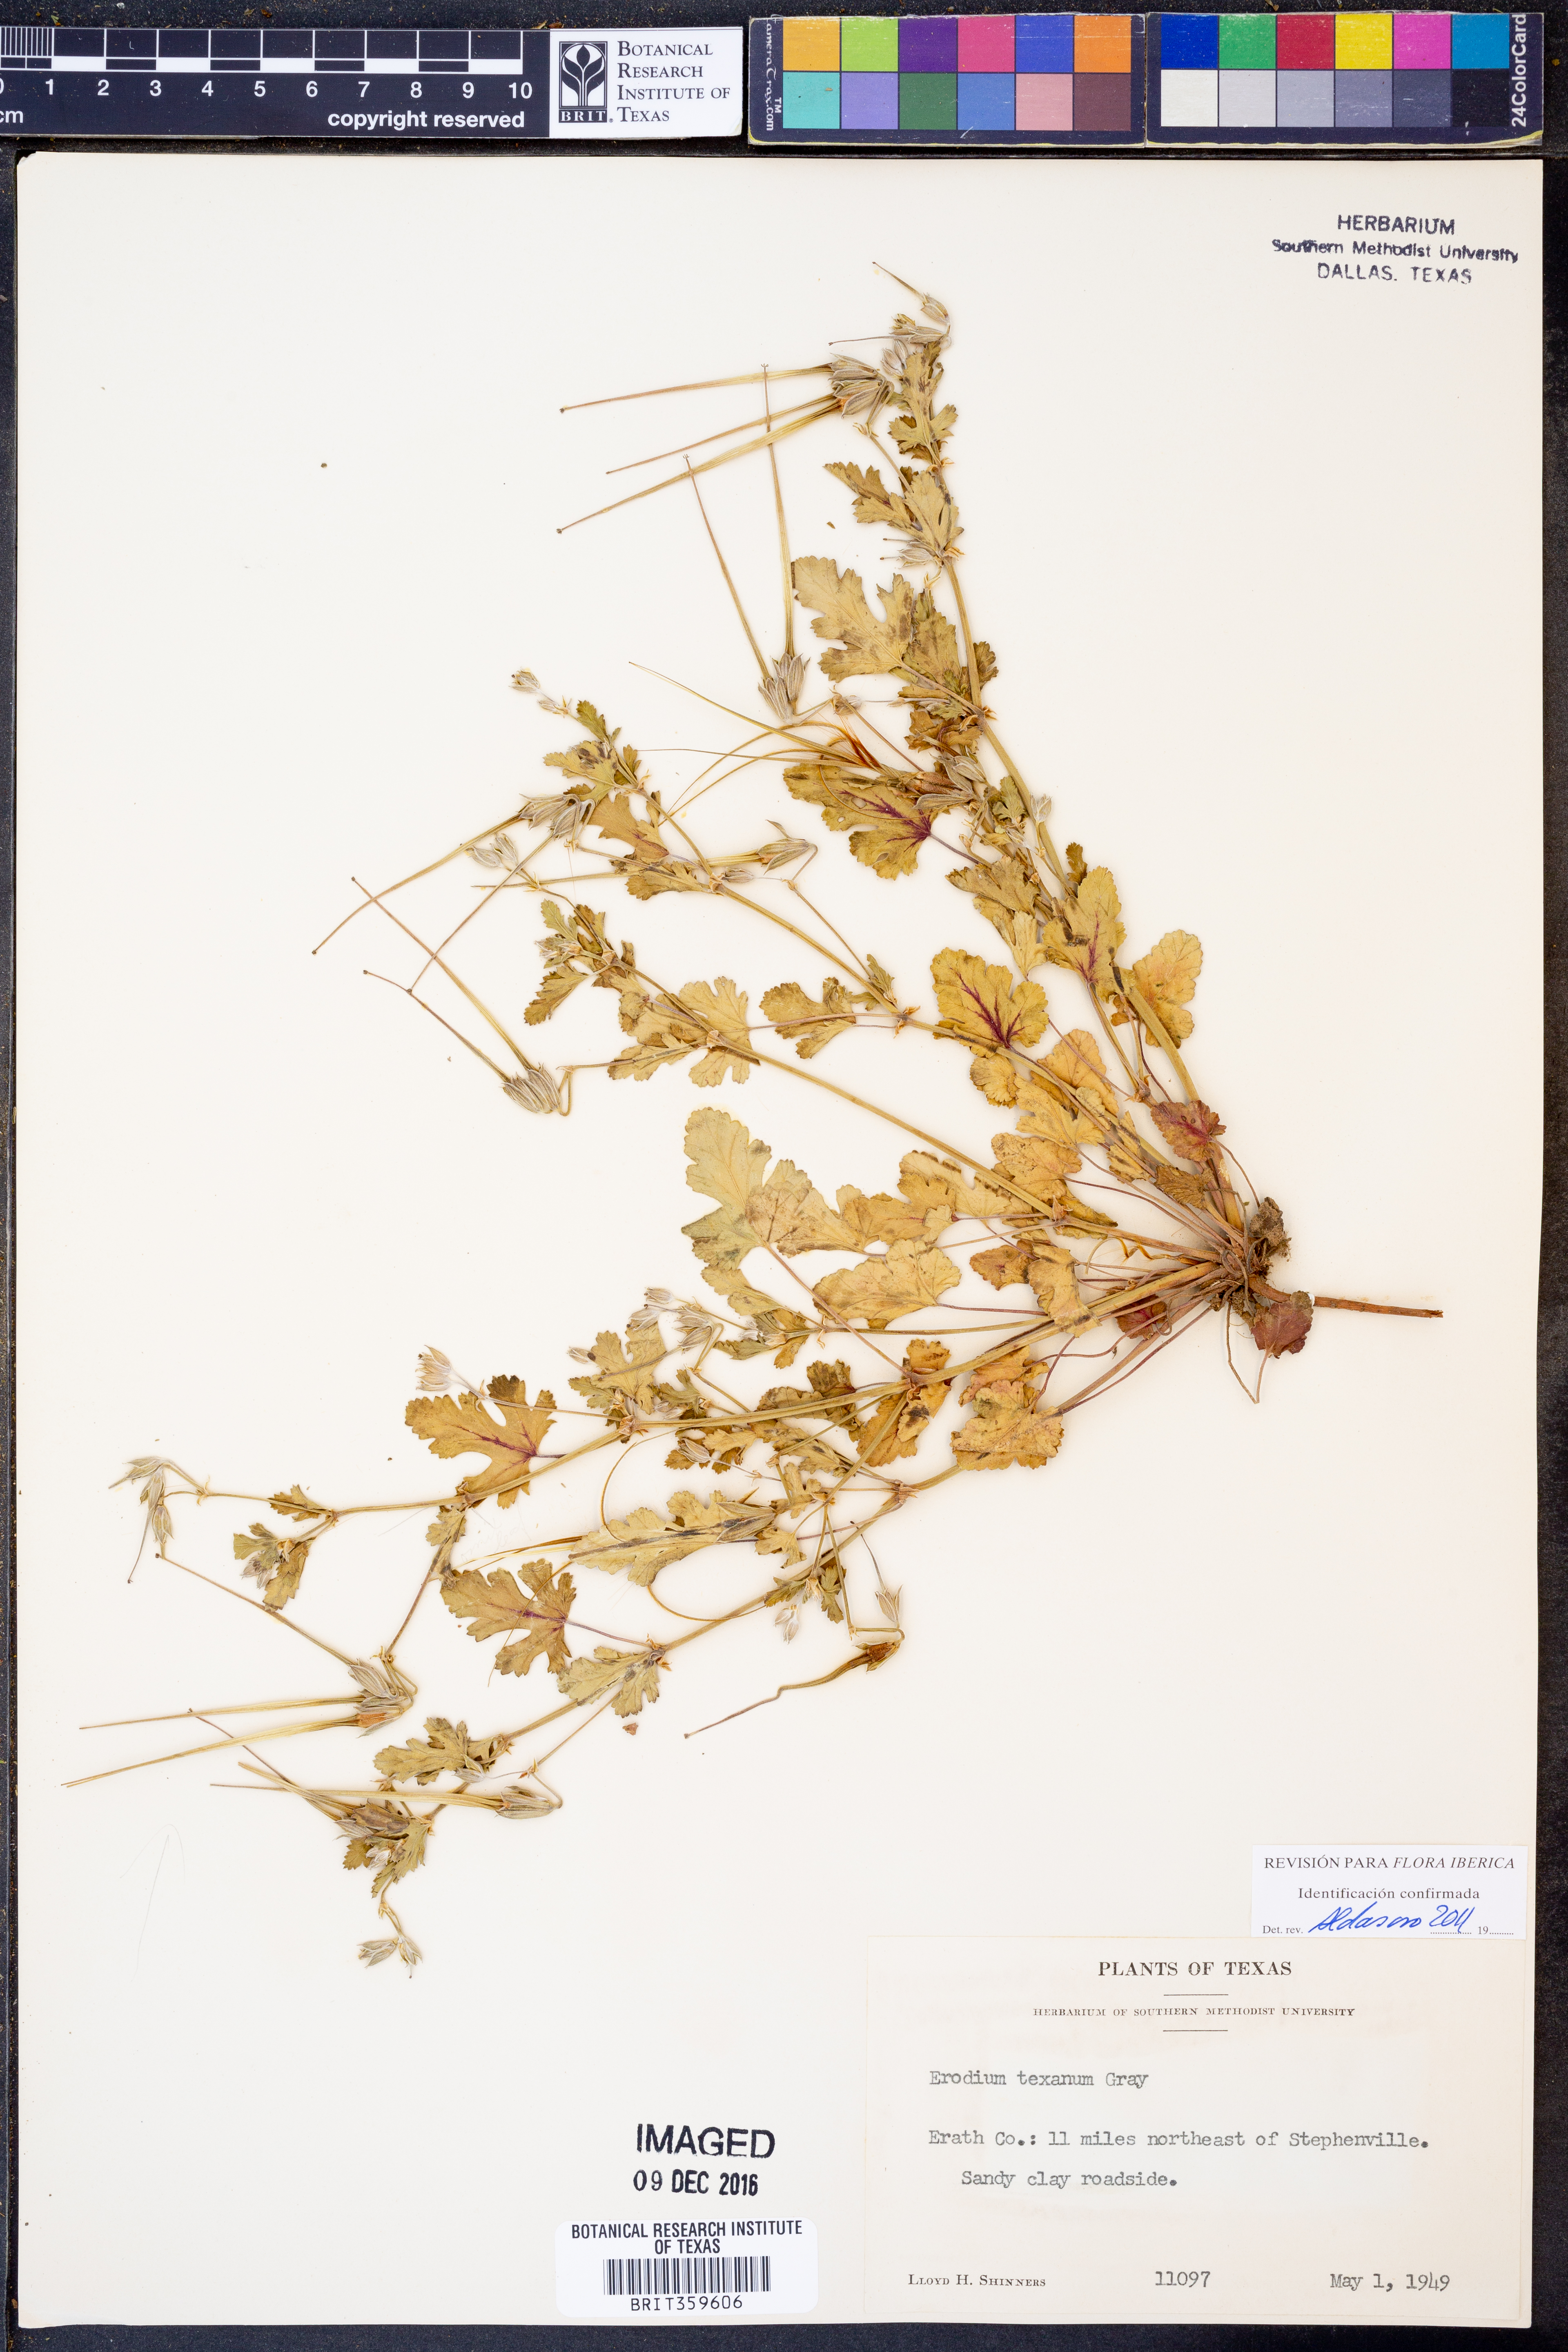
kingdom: Plantae
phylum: Tracheophyta
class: Magnoliopsida
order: Geraniales
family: Geraniaceae
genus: Erodium
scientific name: Erodium texanum
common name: Texas stork's-bill
